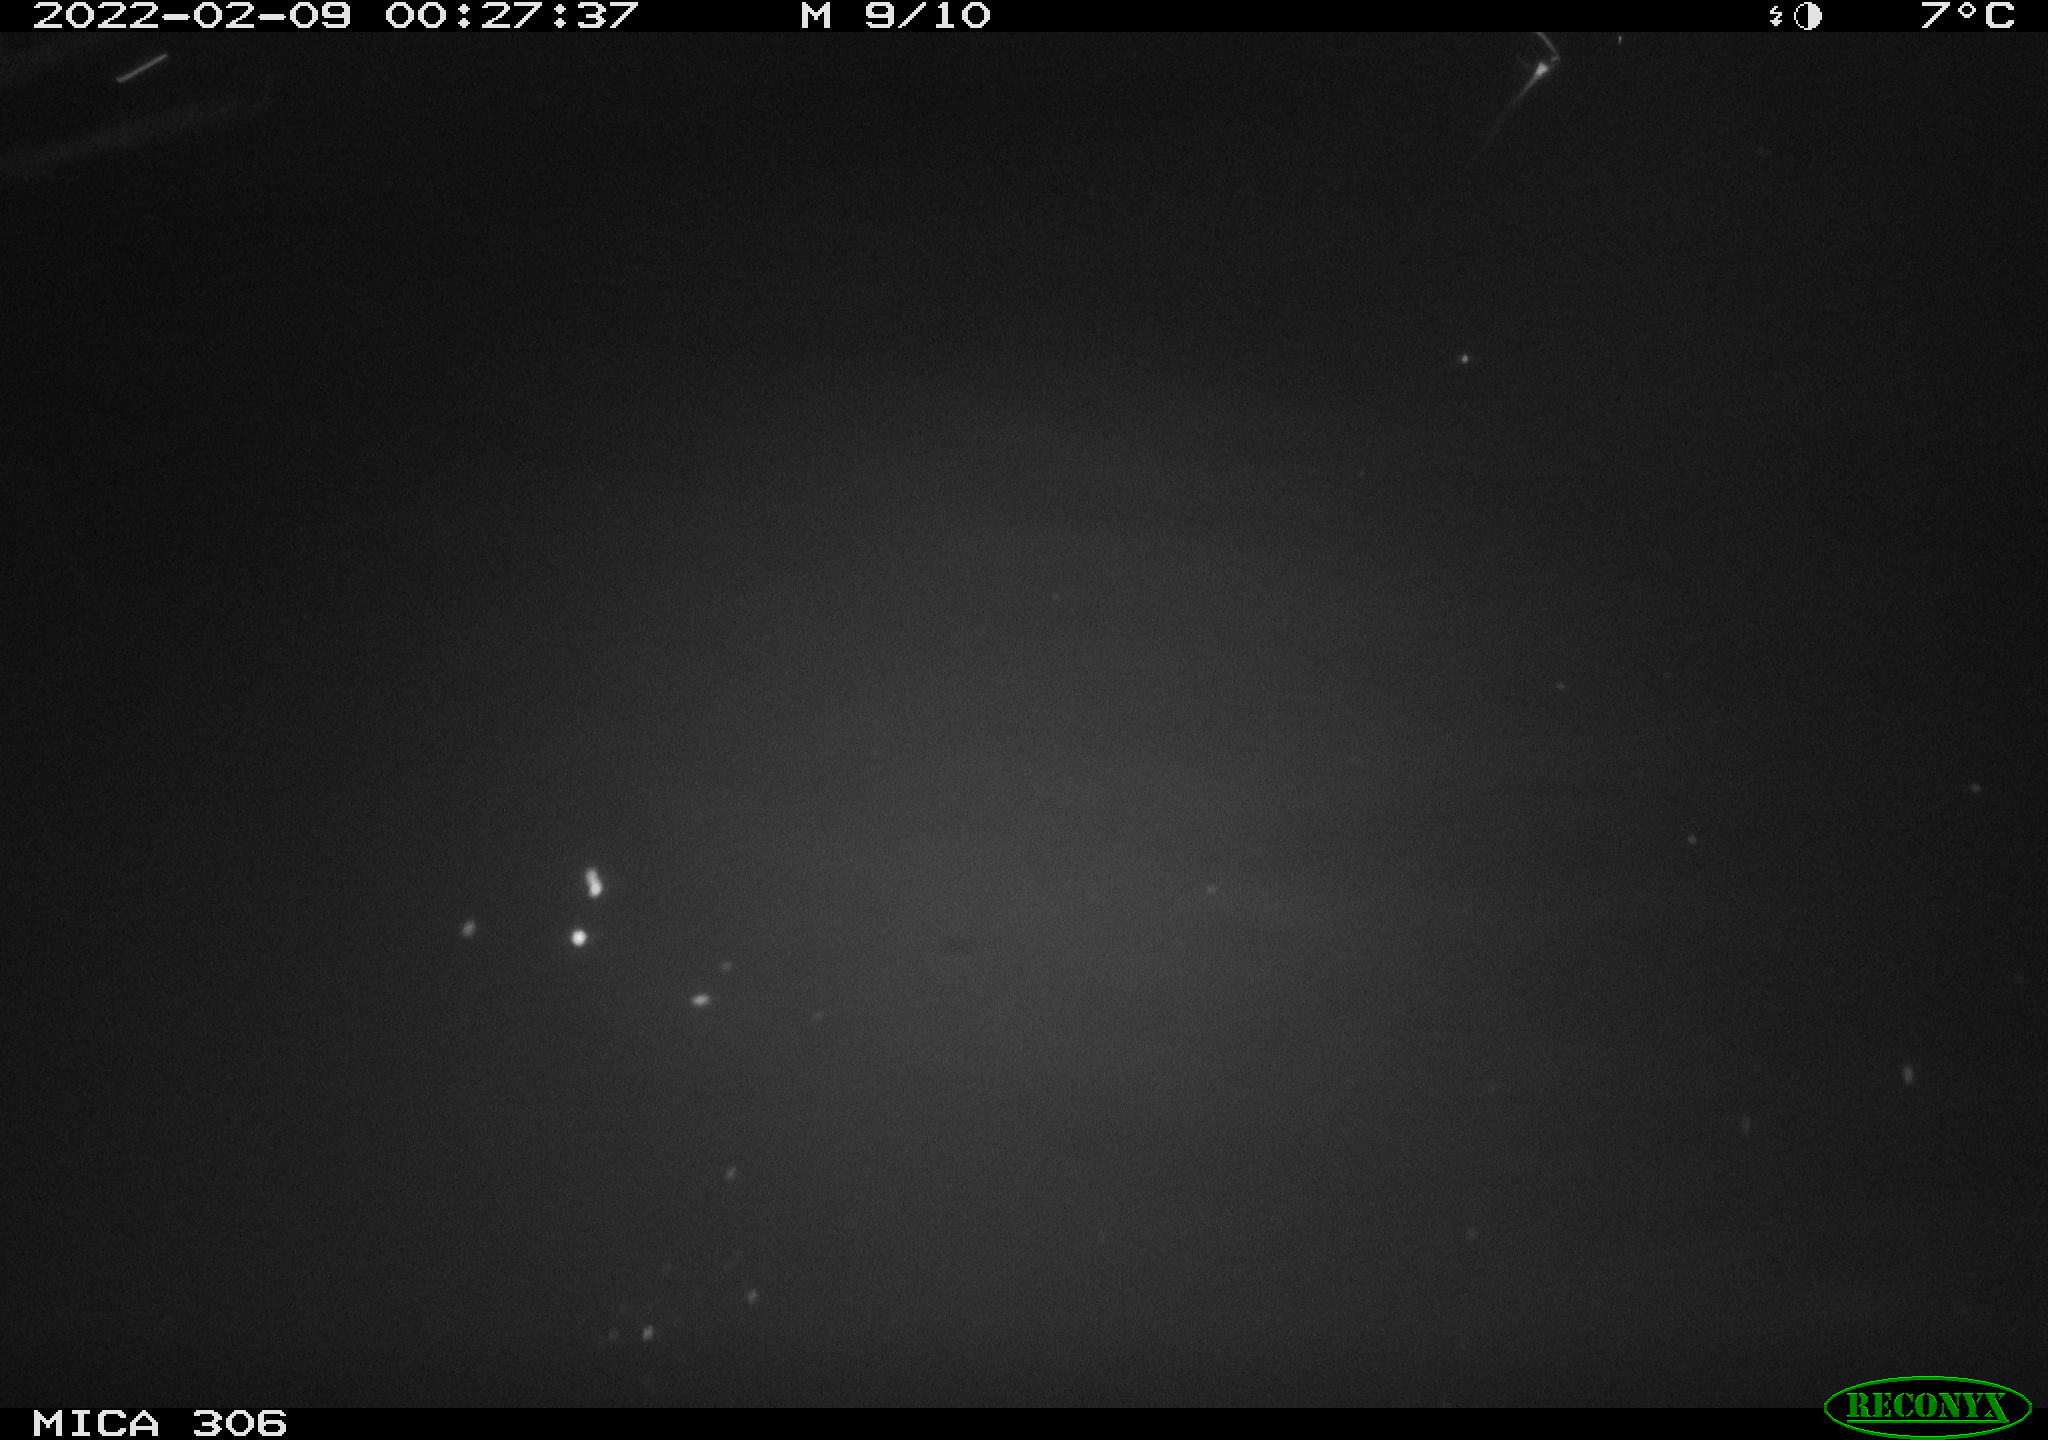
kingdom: Animalia
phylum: Chordata
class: Mammalia
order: Rodentia
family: Cricetidae
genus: Ondatra
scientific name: Ondatra zibethicus
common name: Muskrat
